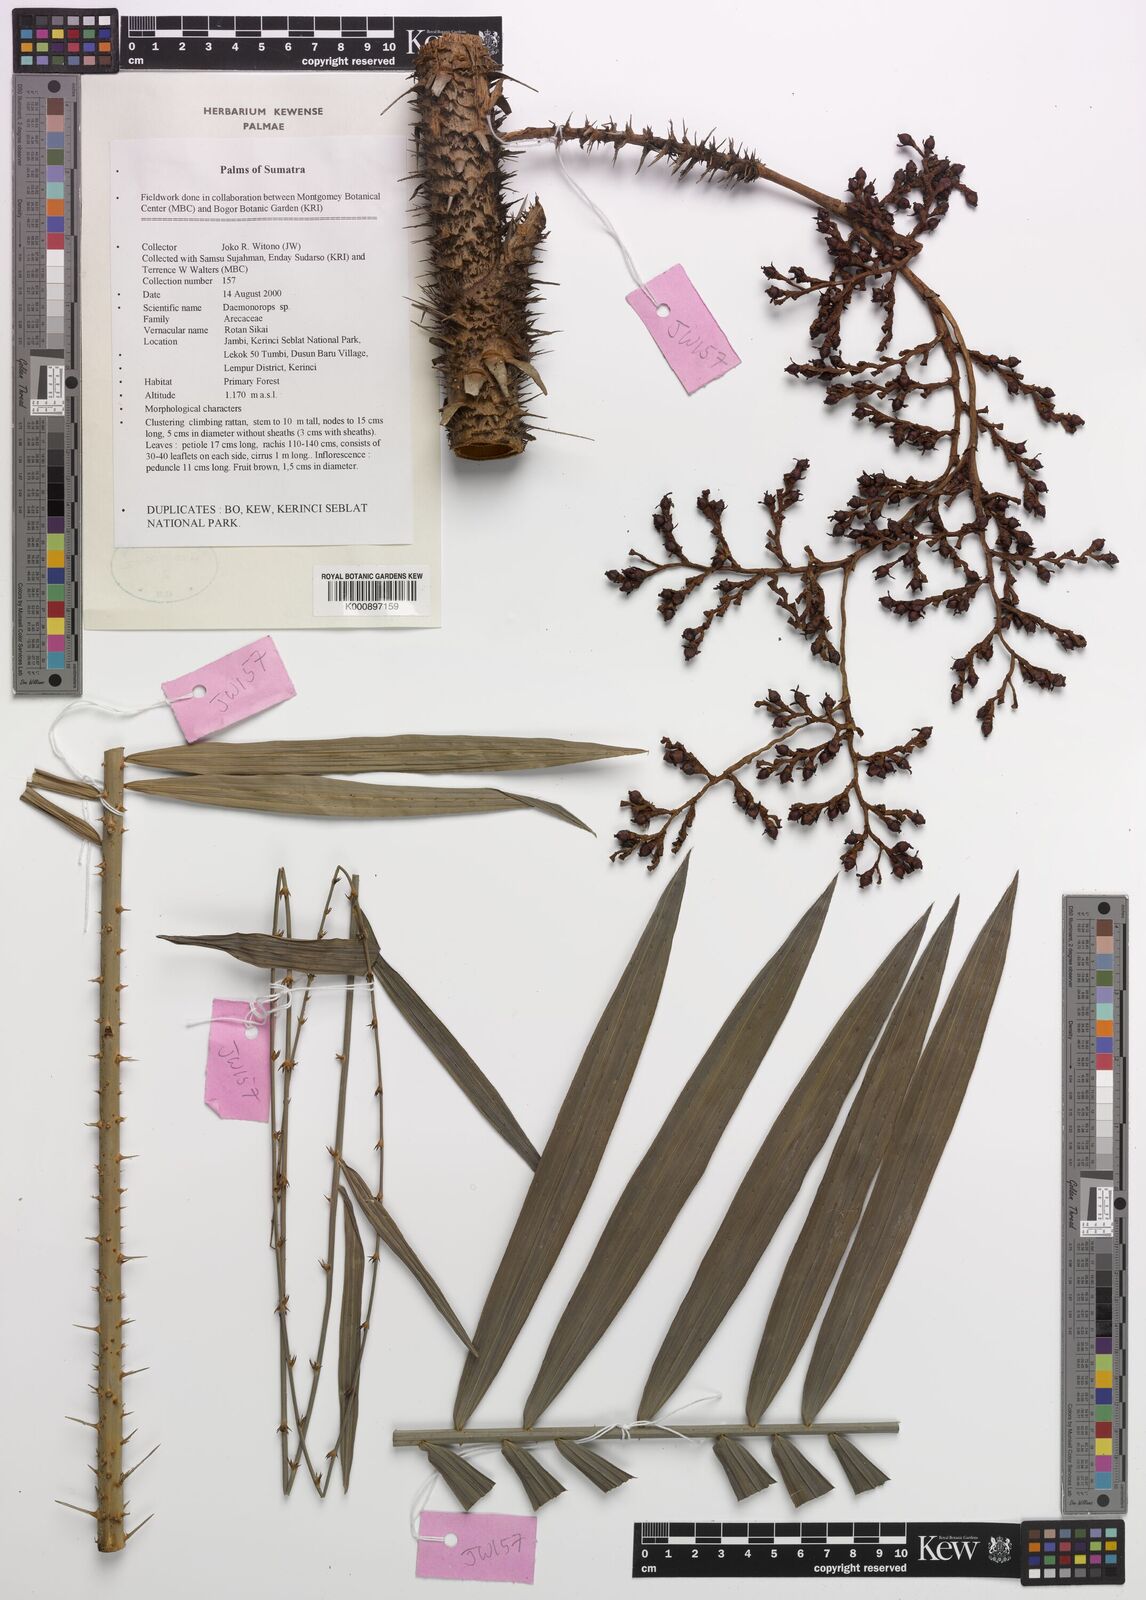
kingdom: Plantae
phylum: Tracheophyta
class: Liliopsida
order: Arecales
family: Arecaceae
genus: Daemonorops
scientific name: Daemonorops
